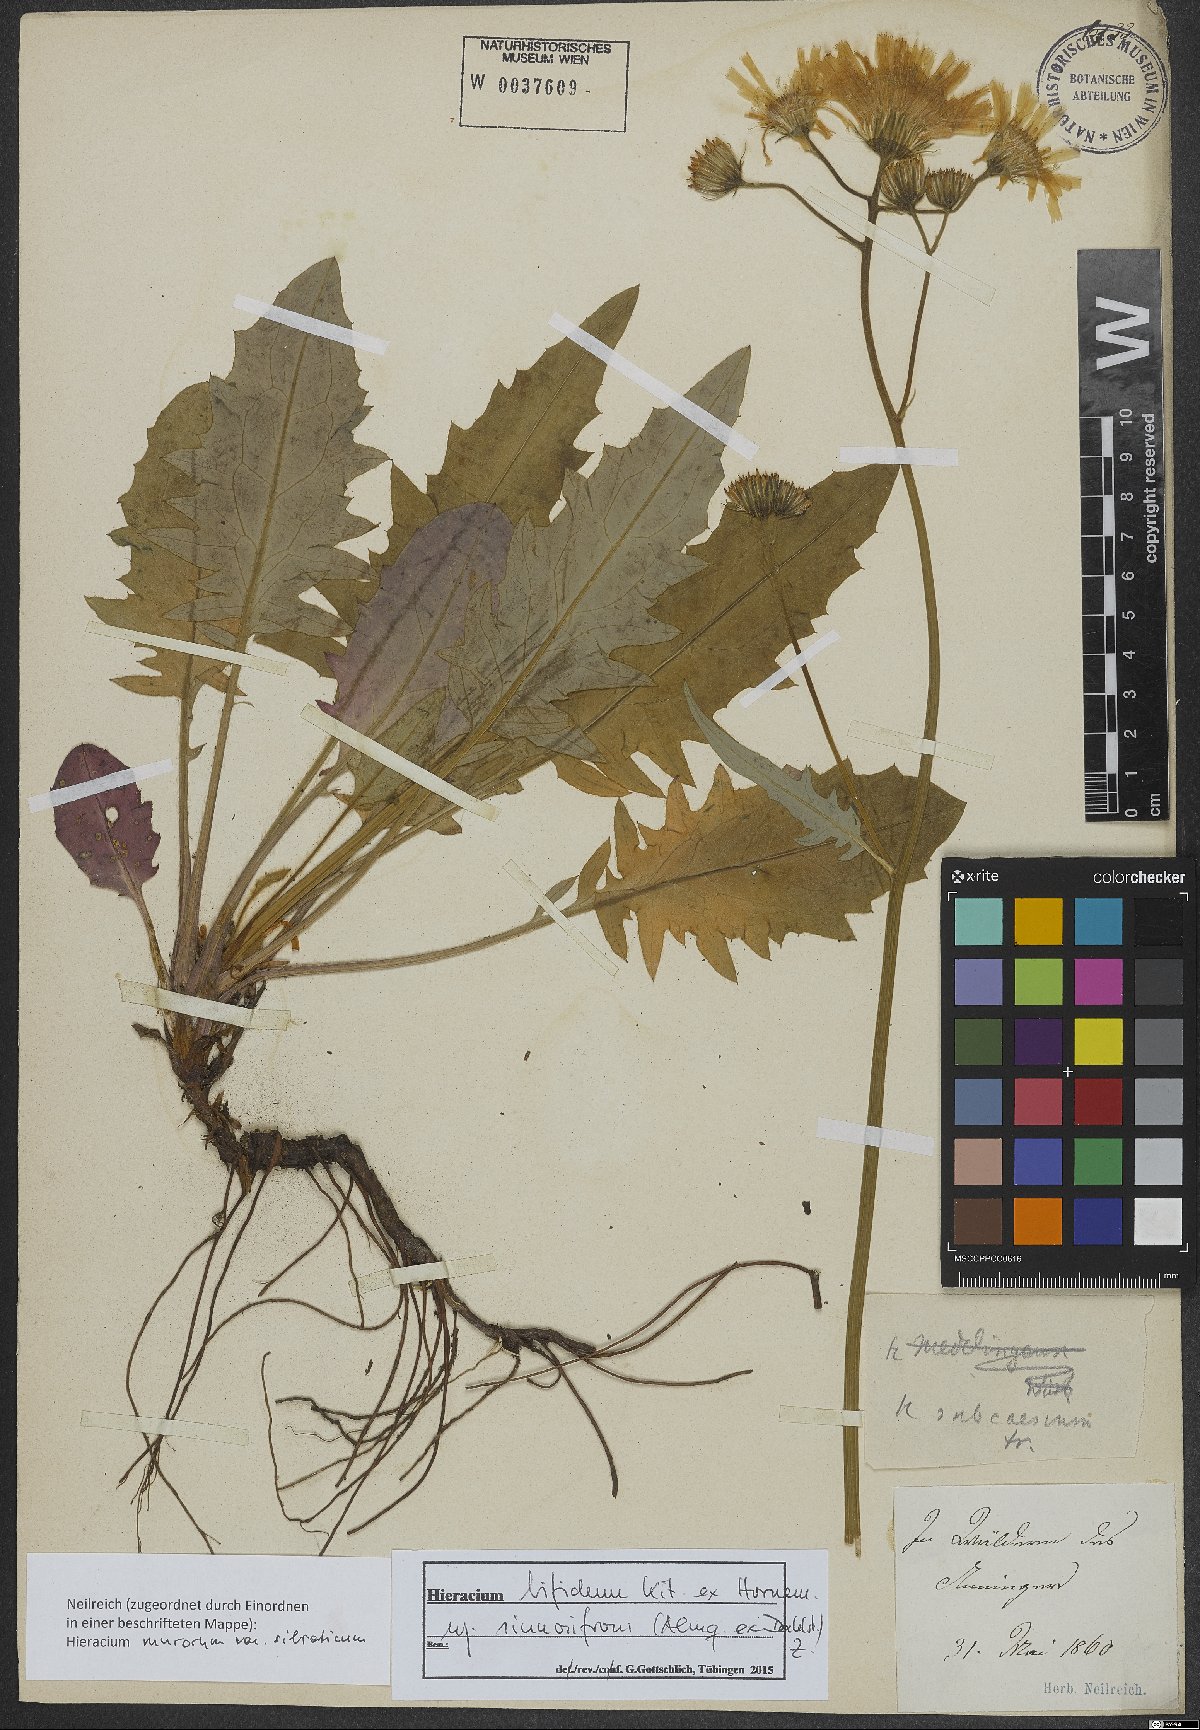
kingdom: Plantae
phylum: Tracheophyta
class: Magnoliopsida
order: Asterales
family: Asteraceae
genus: Hieracium
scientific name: Hieracium bifidum
